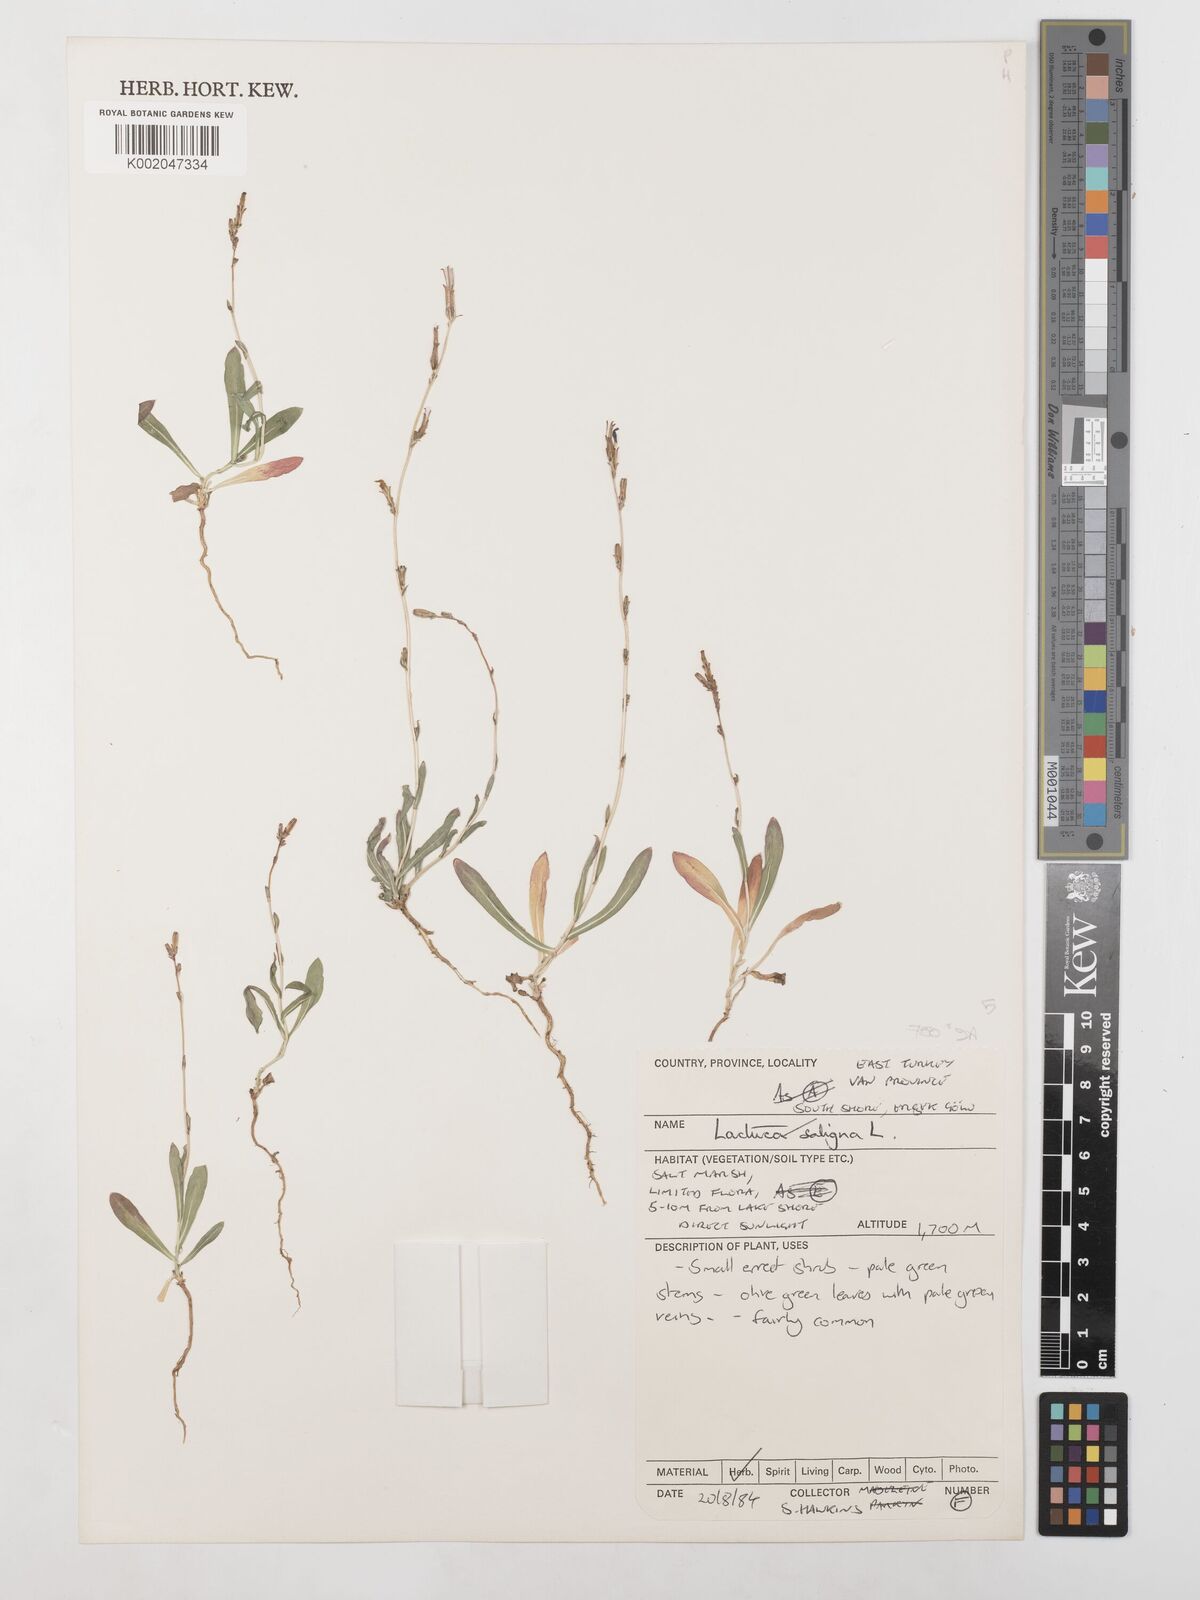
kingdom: Plantae
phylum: Tracheophyta
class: Magnoliopsida
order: Asterales
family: Asteraceae
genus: Lactuca
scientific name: Lactuca saligna
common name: Wild lettuce
